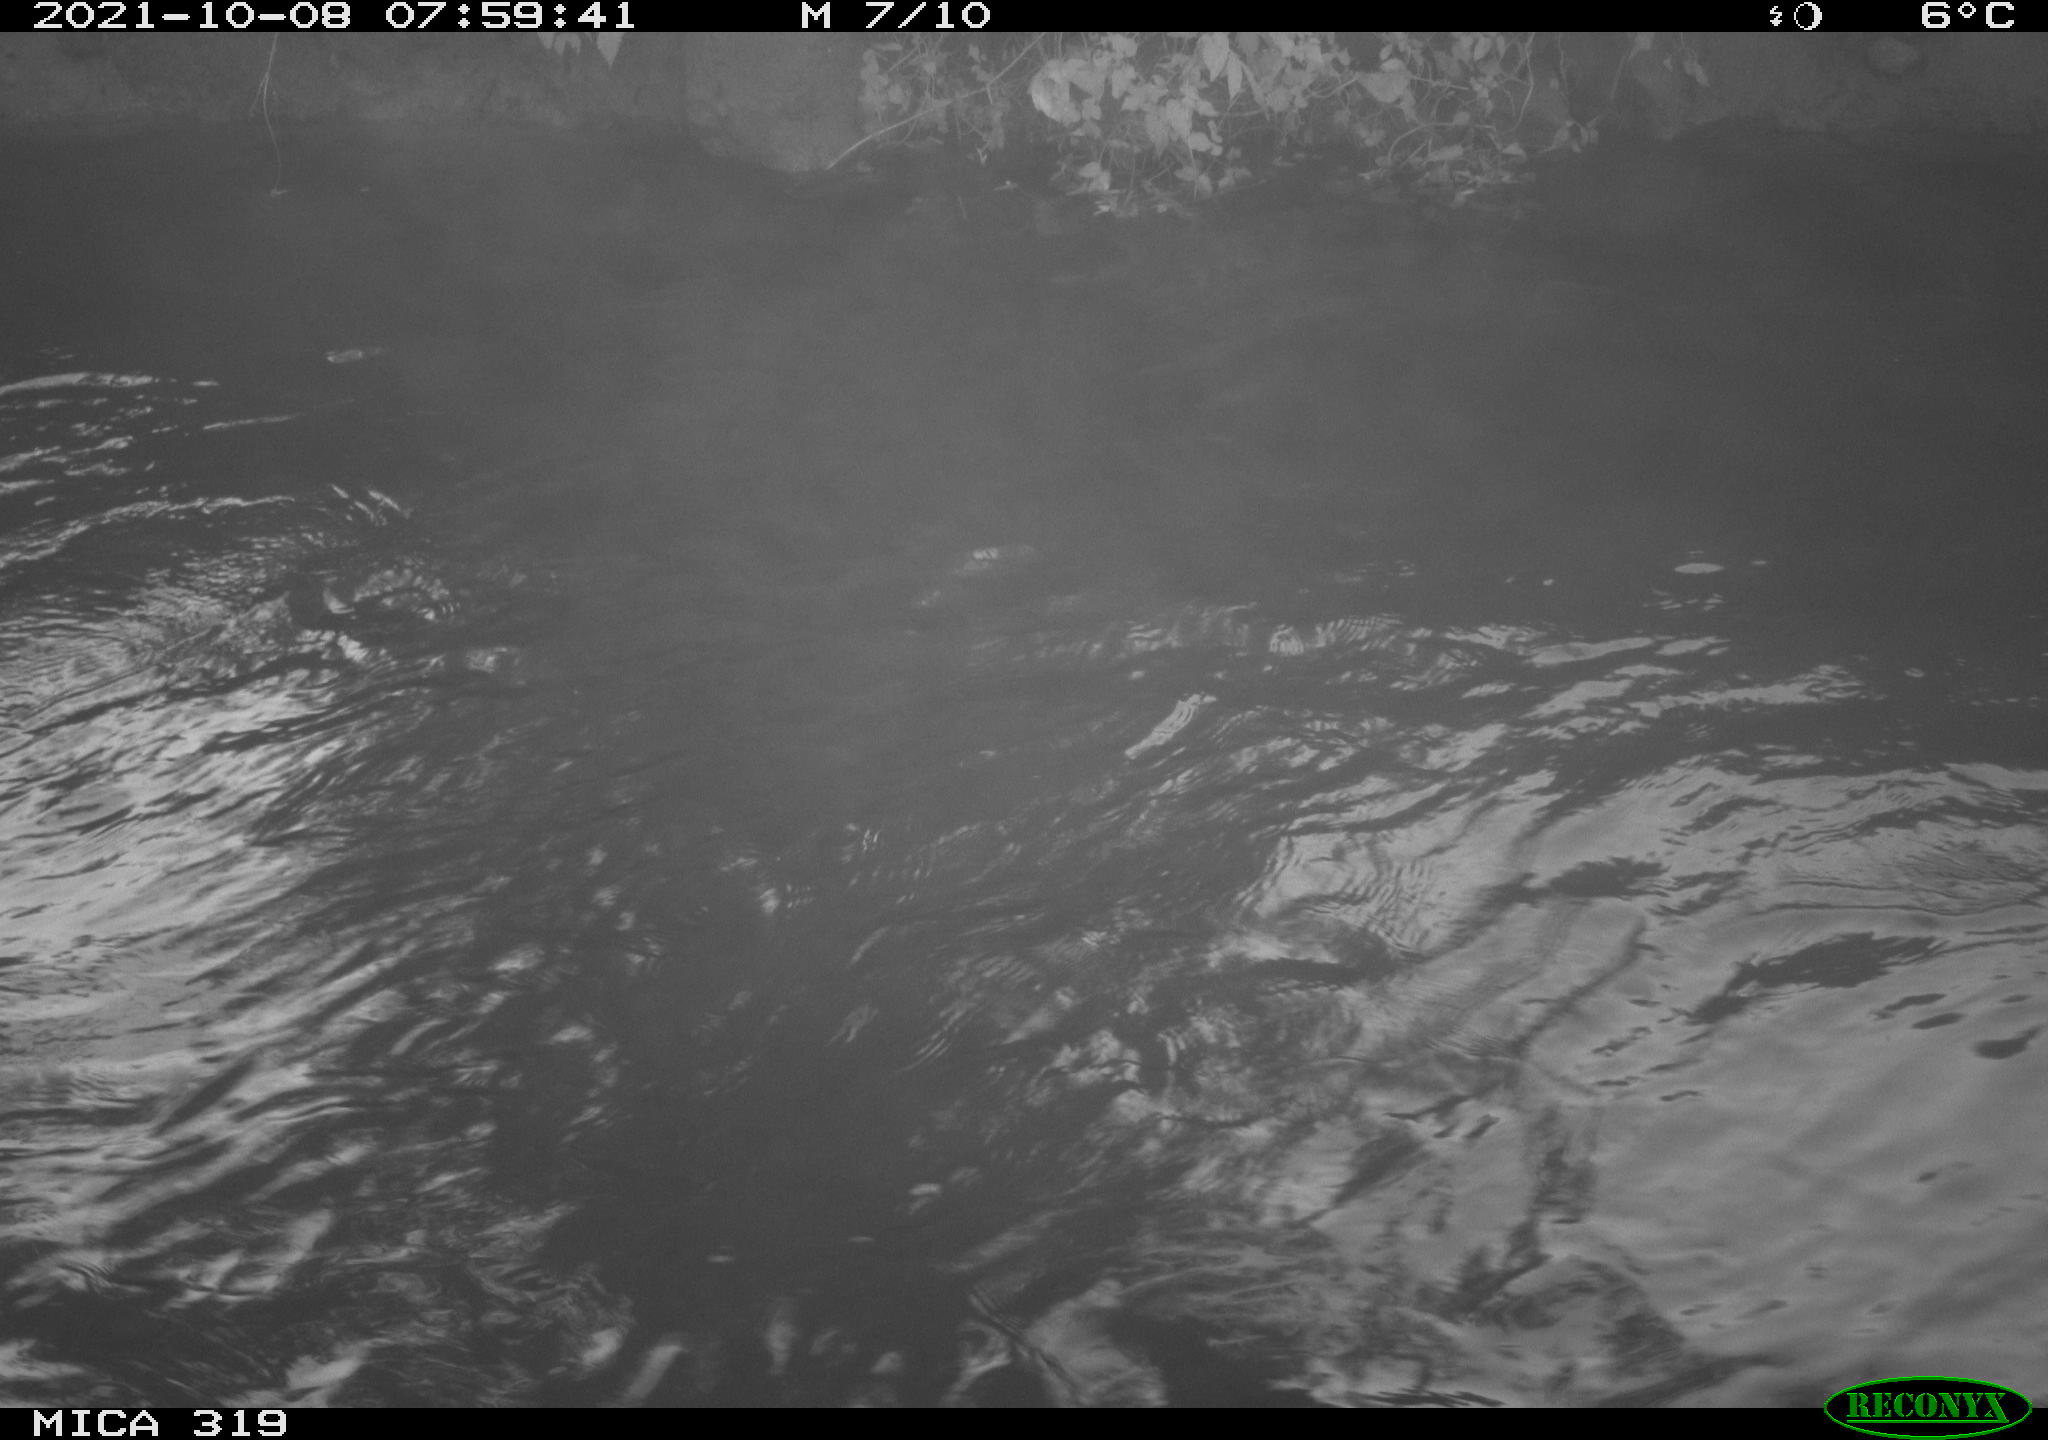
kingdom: Animalia
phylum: Chordata
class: Aves
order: Anseriformes
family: Anatidae
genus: Anas
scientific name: Anas platyrhynchos
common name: Mallard
